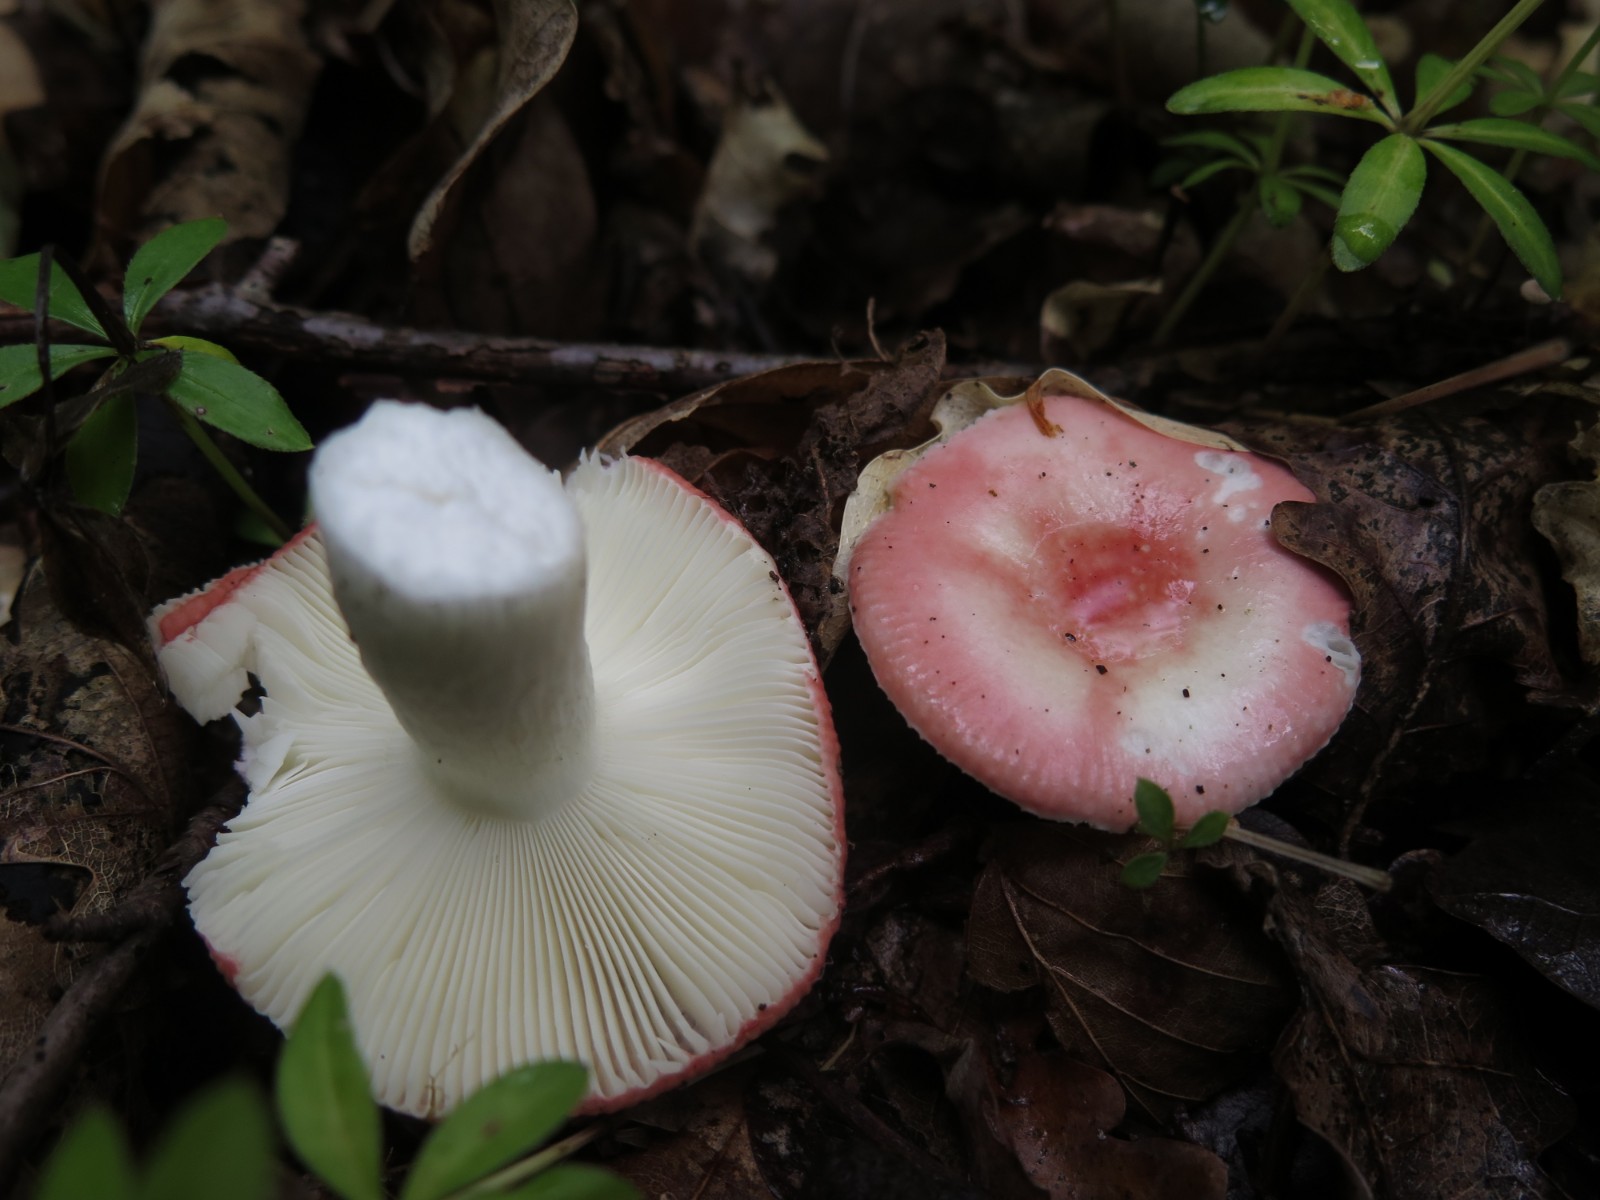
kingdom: Fungi
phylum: Basidiomycota
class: Agaricomycetes
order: Russulales
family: Russulaceae
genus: Russula
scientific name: Russula nobilis
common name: lille gift-skørhat
